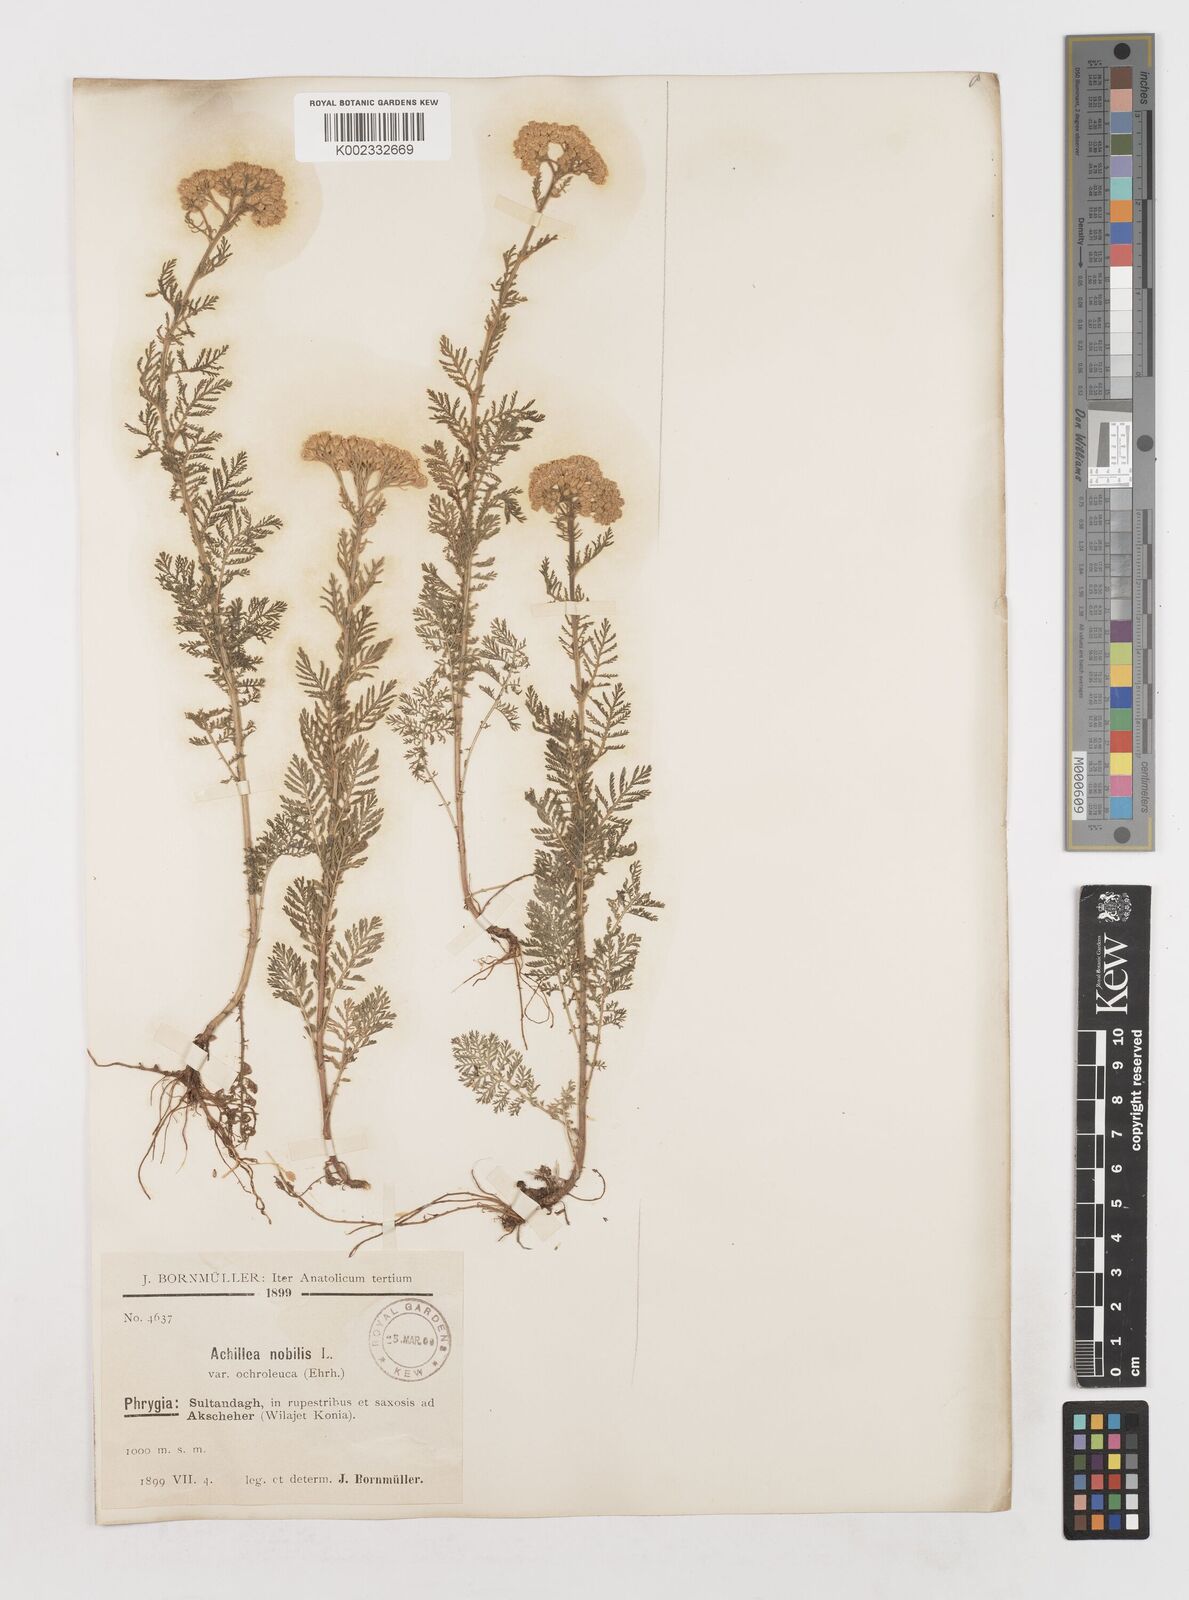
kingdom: Plantae
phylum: Tracheophyta
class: Magnoliopsida
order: Asterales
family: Asteraceae
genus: Achillea
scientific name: Achillea nobilis
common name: Noble yarrow
